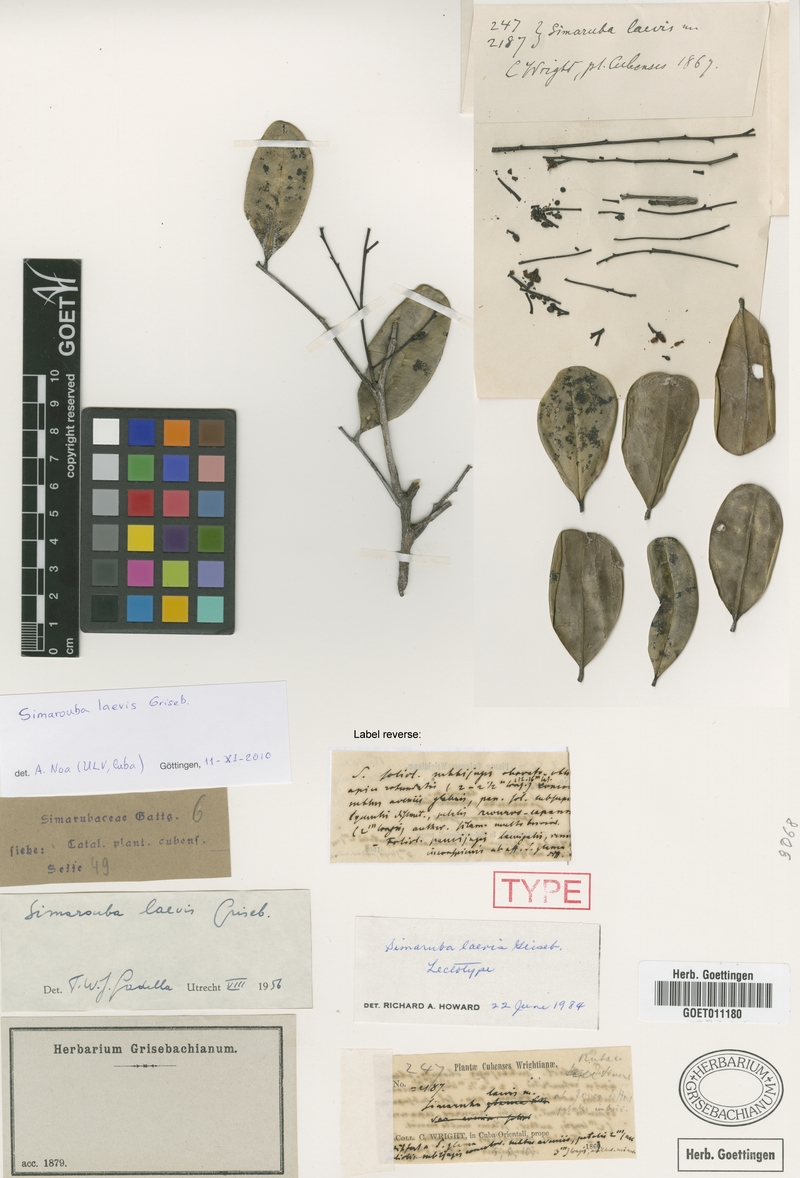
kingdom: Plantae
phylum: Tracheophyta
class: Magnoliopsida
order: Sapindales
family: Simaroubaceae
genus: Simarouba
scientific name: Simarouba laevis
